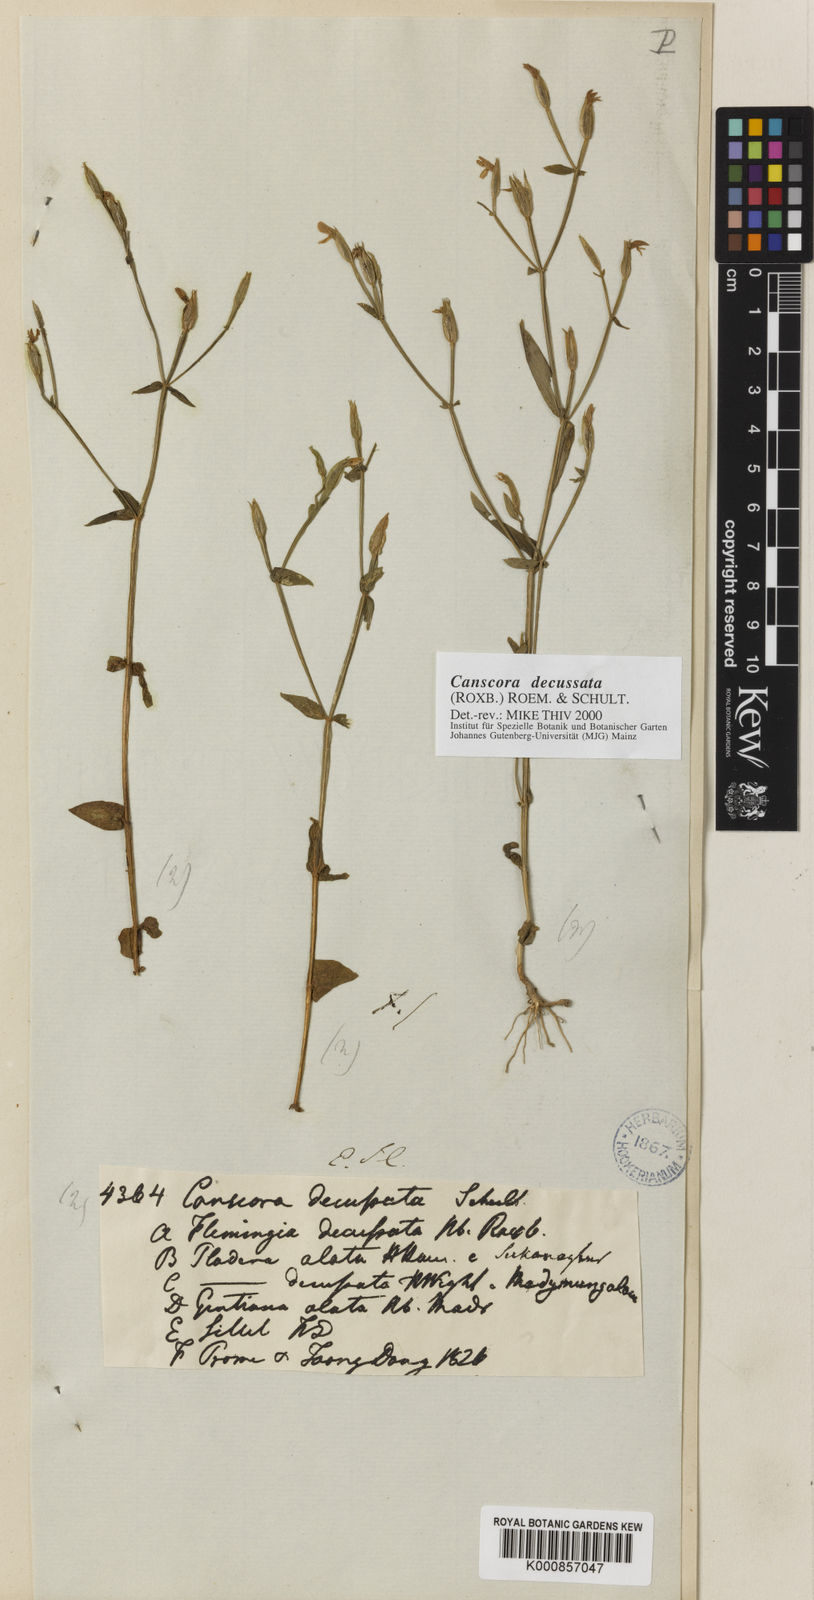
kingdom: Plantae
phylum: Tracheophyta
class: Magnoliopsida
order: Gentianales
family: Gentianaceae
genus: Canscora
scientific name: Canscora alata
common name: Canscora
